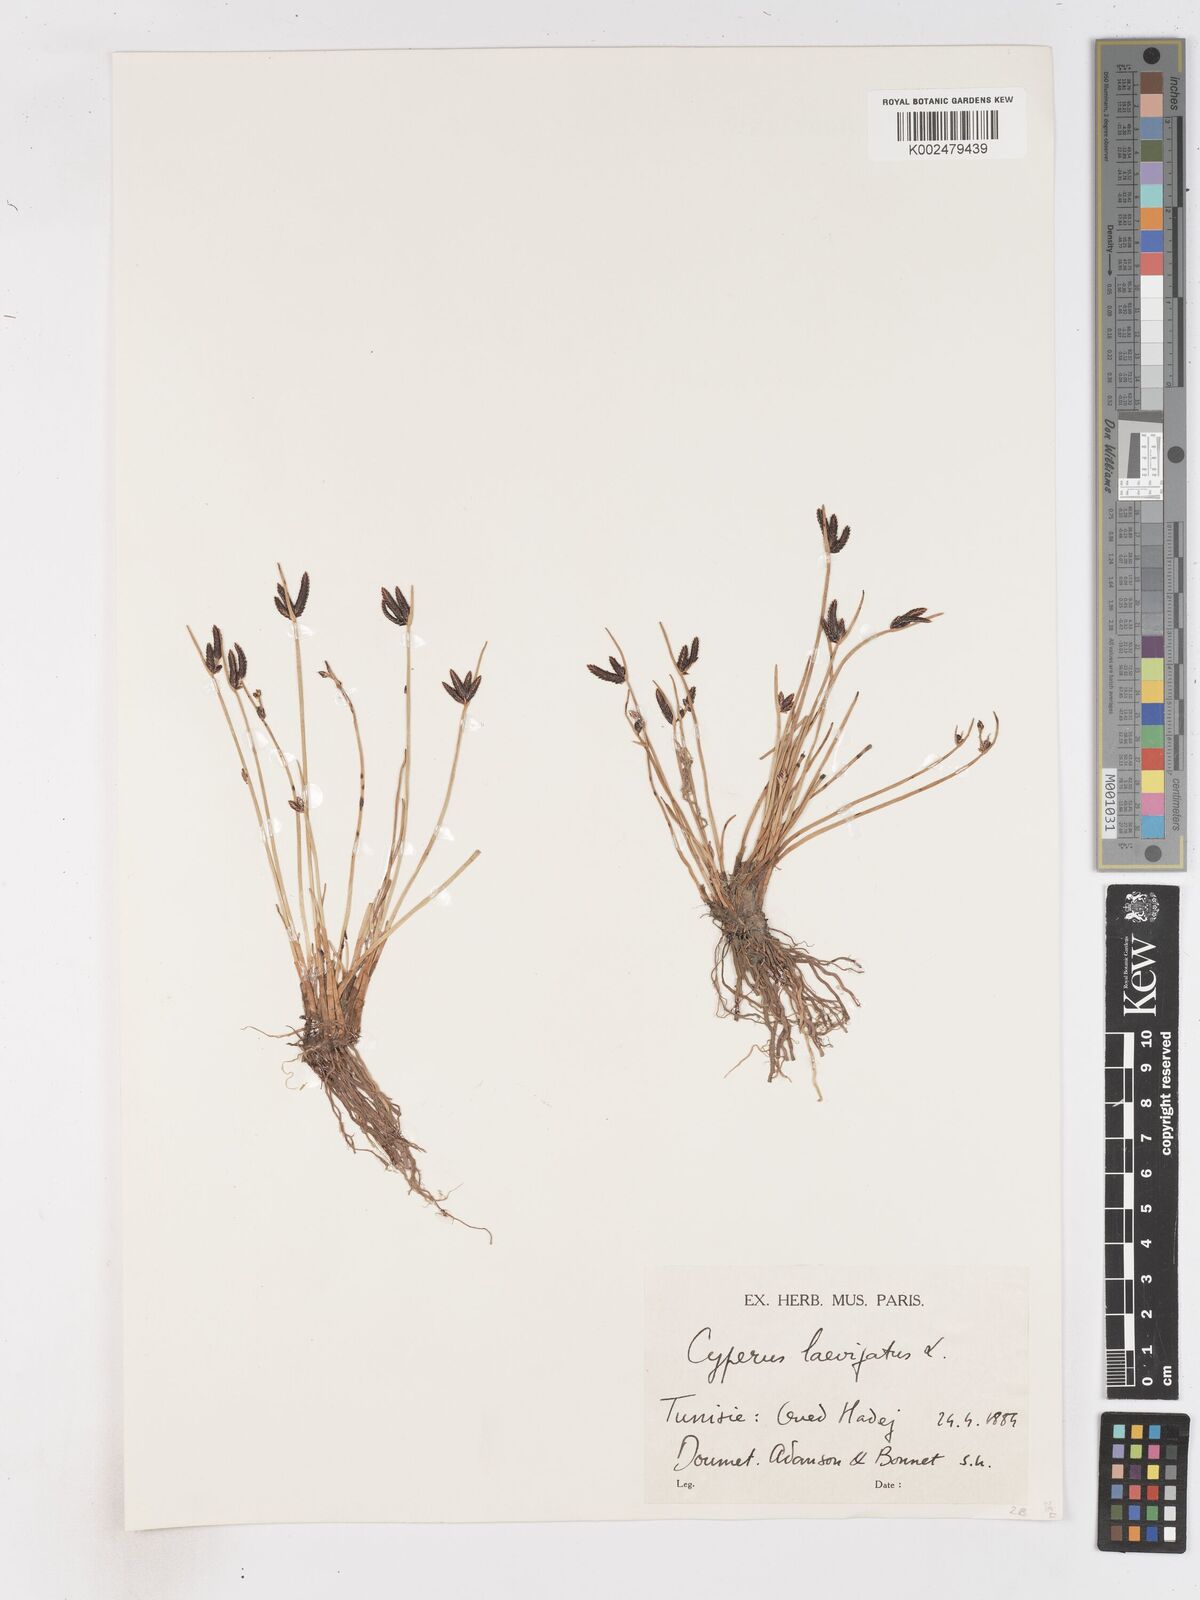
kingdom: Plantae
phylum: Tracheophyta
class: Liliopsida
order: Poales
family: Cyperaceae
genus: Cyperus
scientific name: Cyperus laevigatus
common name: Smooth flat sedge
